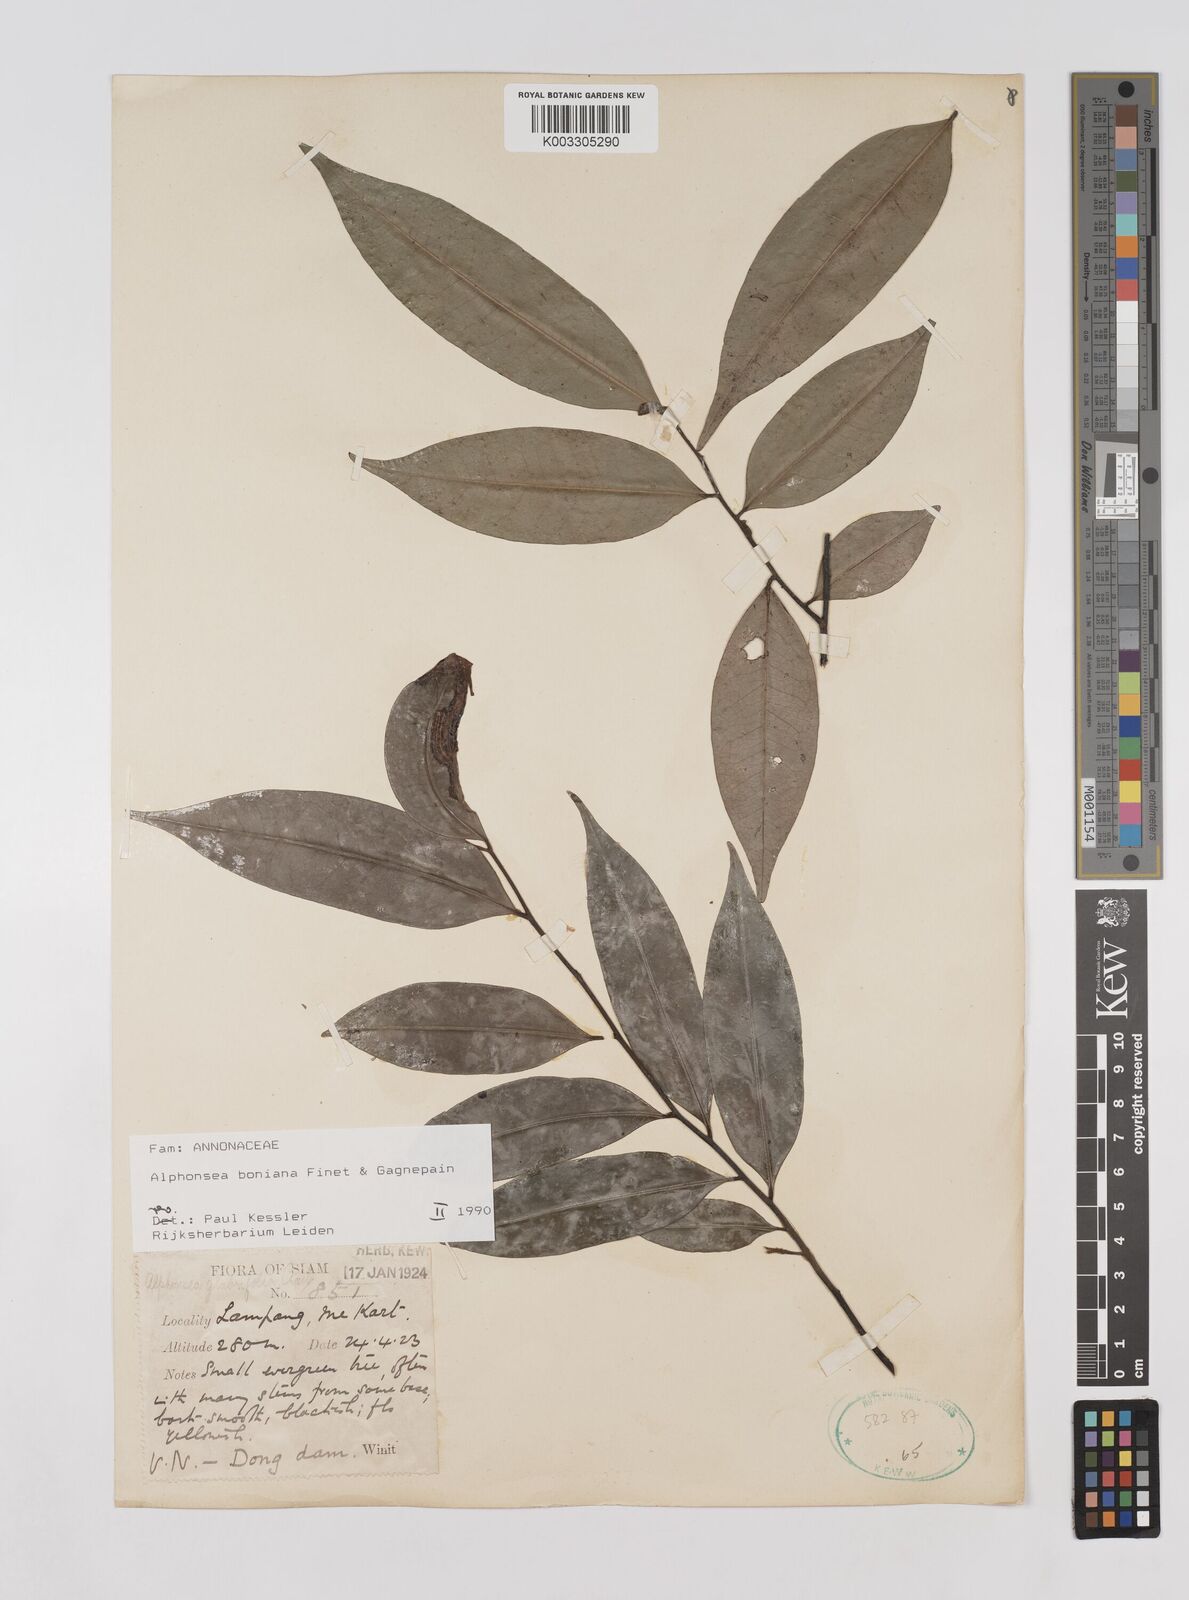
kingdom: Plantae
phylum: Tracheophyta
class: Magnoliopsida
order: Magnoliales
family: Annonaceae
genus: Alphonsea
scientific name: Alphonsea boniana
